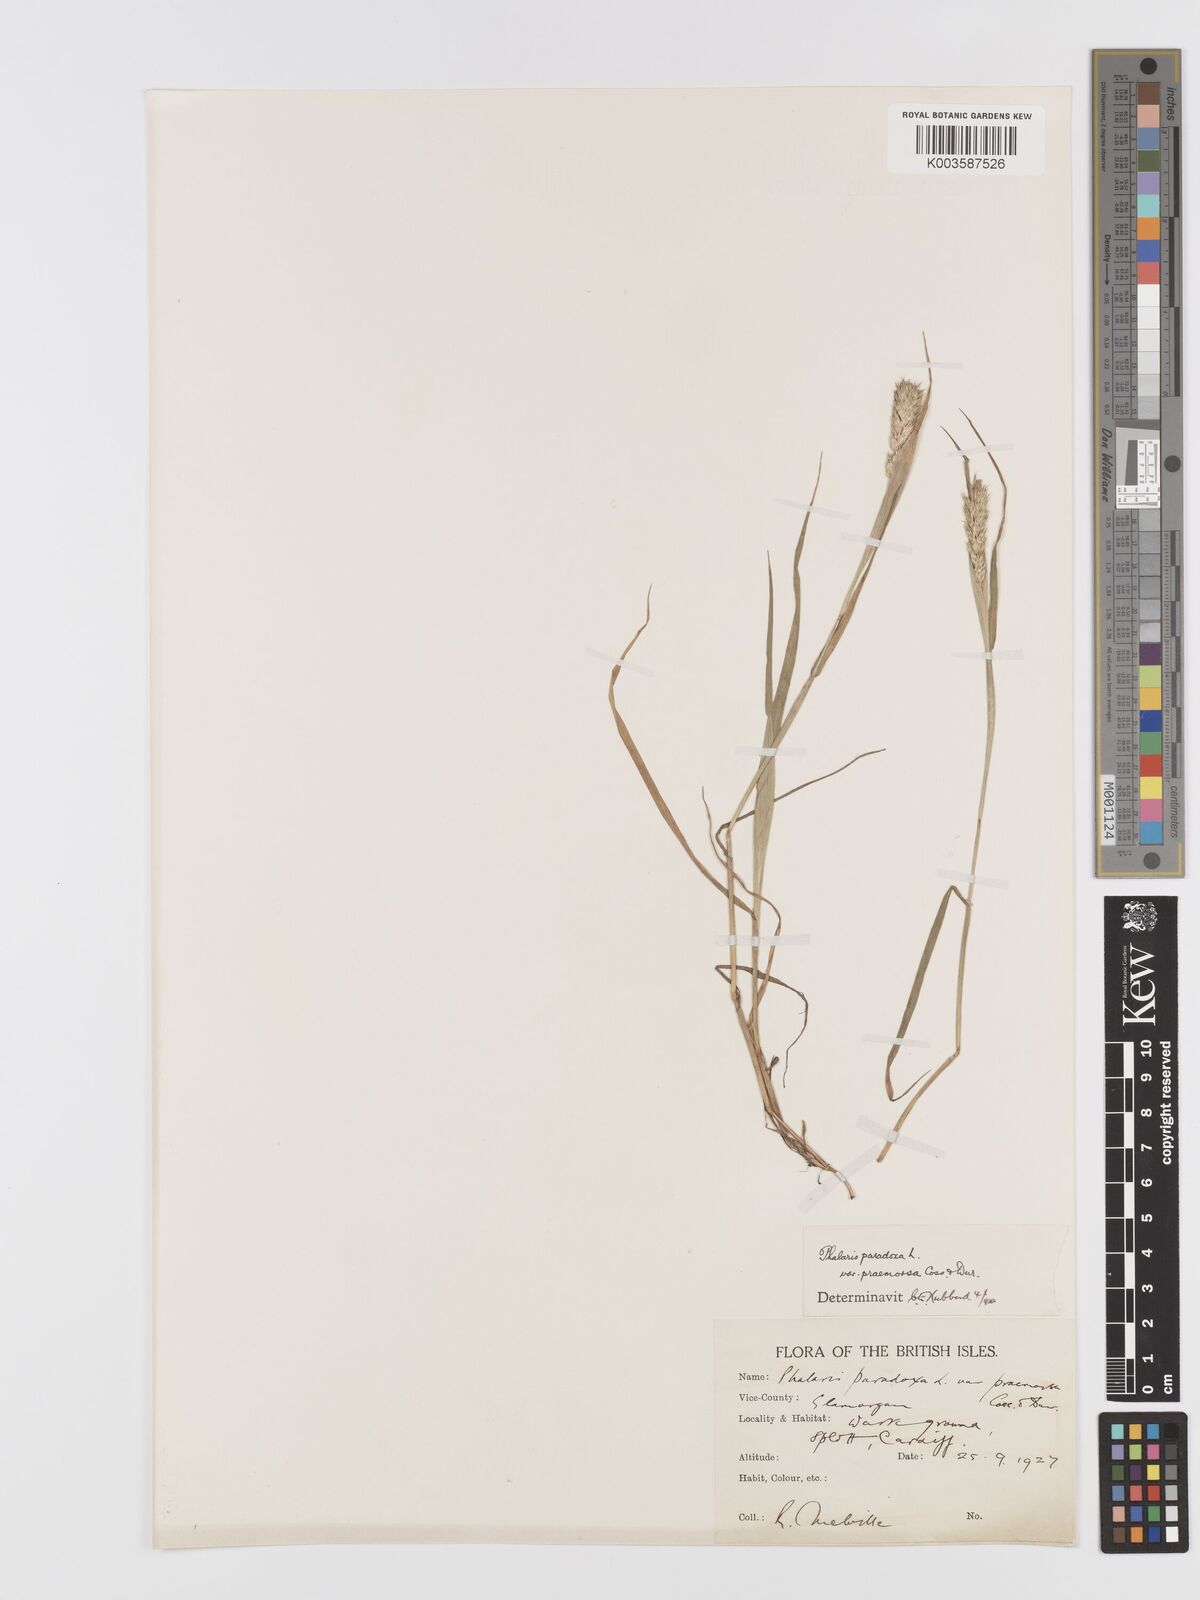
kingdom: Plantae
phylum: Tracheophyta
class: Liliopsida
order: Poales
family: Poaceae
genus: Phalaris
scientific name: Phalaris paradoxa
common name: Awned canary-grass
